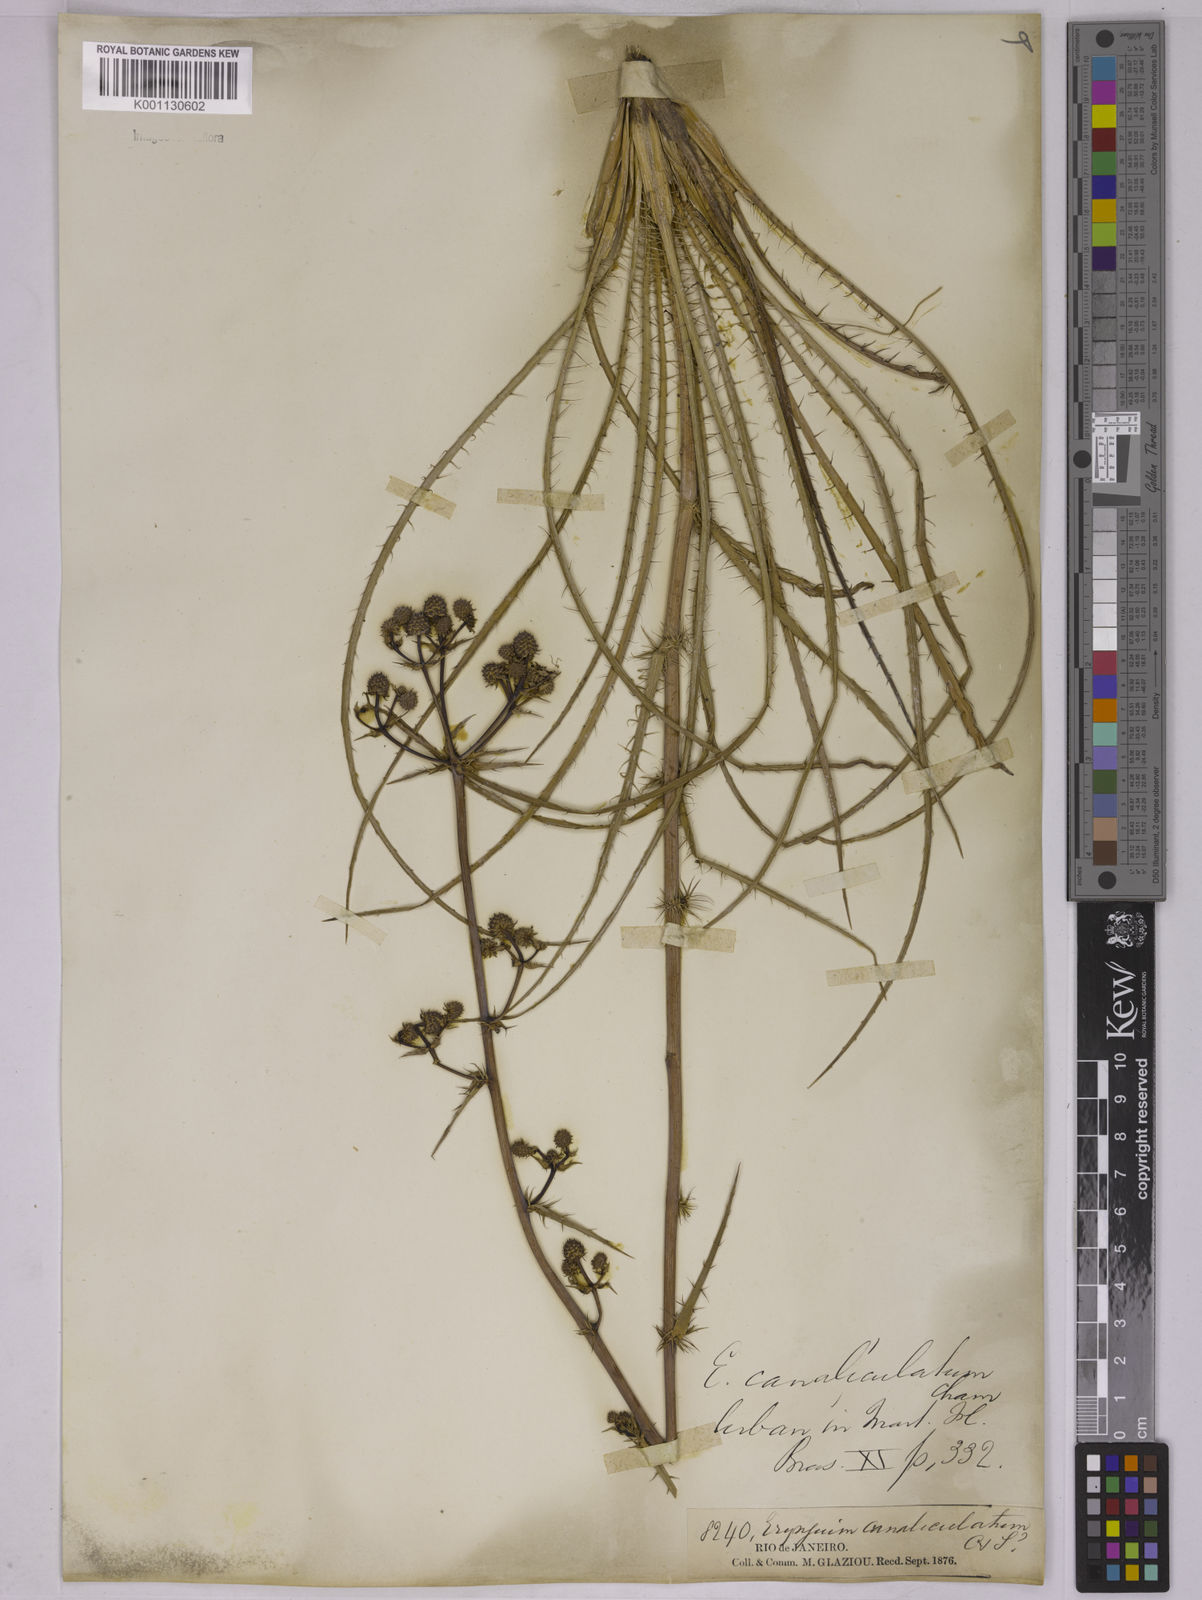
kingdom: Plantae
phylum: Tracheophyta
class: Magnoliopsida
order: Apiales
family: Apiaceae
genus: Eryngium
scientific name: Eryngium canaliculatum
